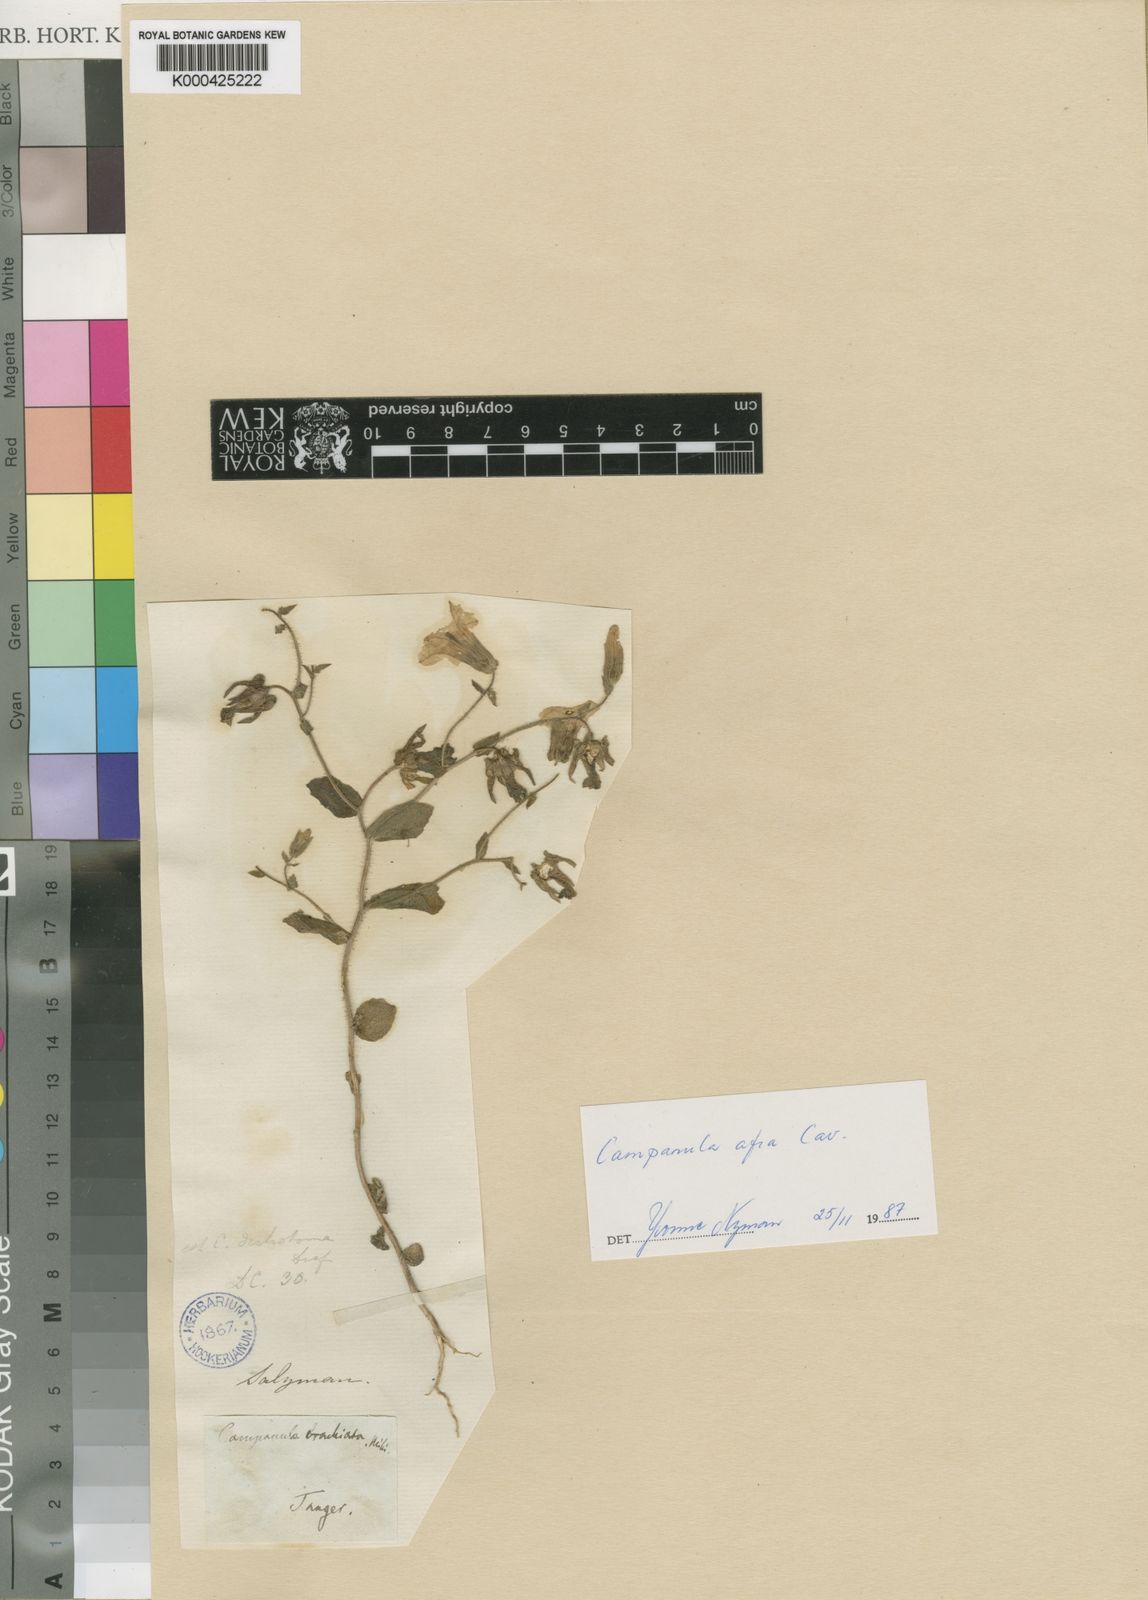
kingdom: Plantae
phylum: Tracheophyta
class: Magnoliopsida
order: Asterales
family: Campanulaceae
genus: Campanula
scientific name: Campanula dichotoma
